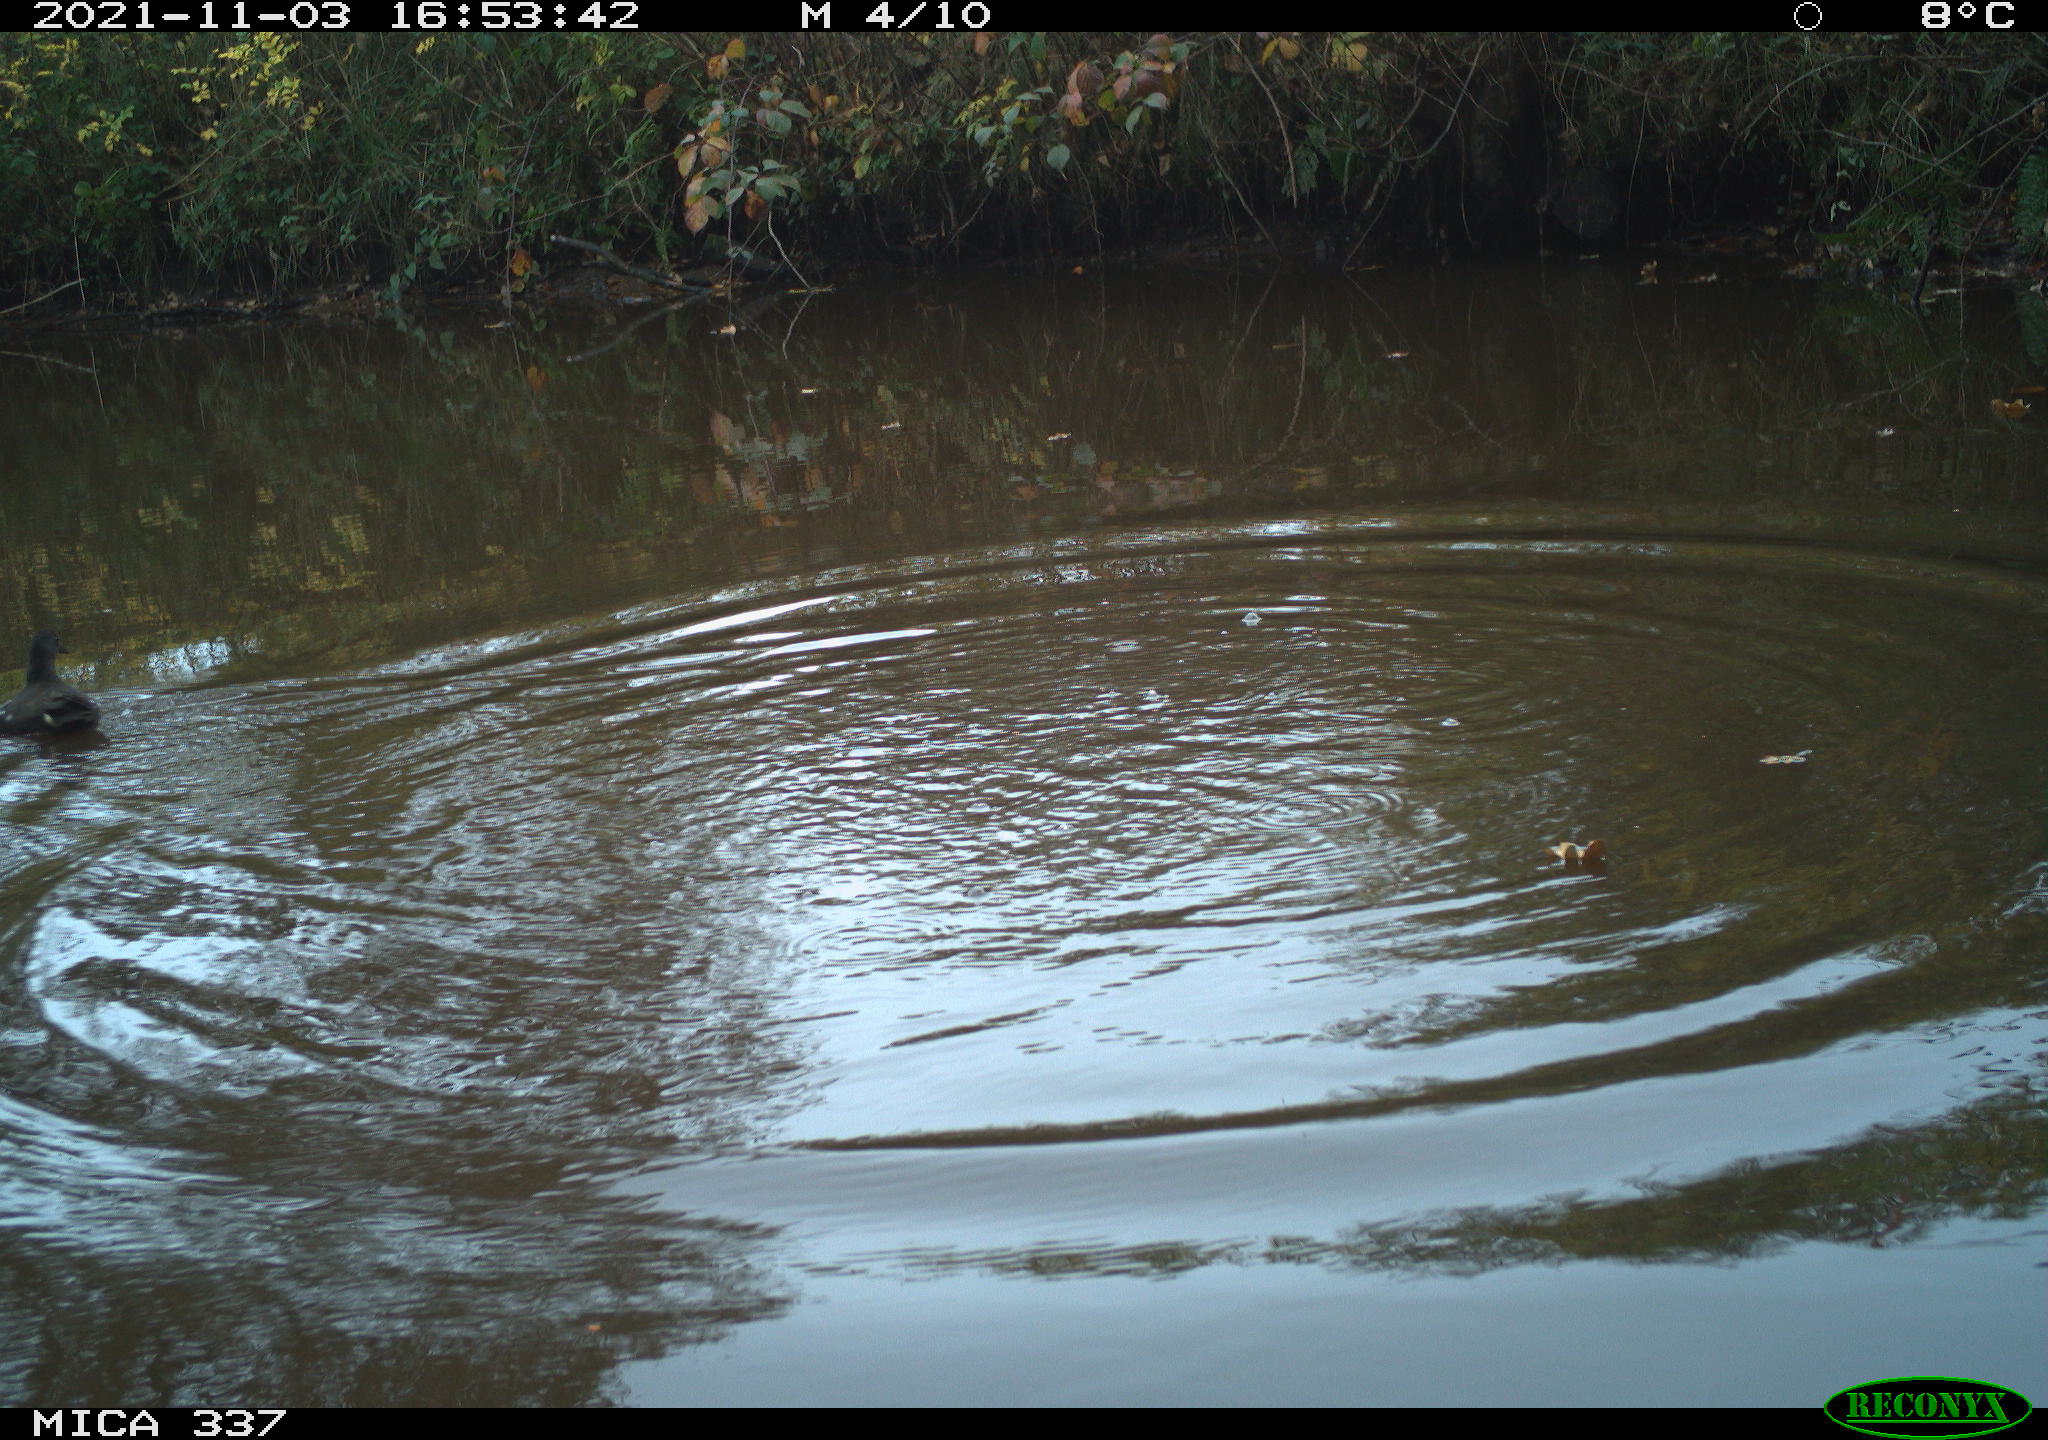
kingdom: Animalia
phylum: Chordata
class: Aves
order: Gruiformes
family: Rallidae
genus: Gallinula
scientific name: Gallinula chloropus
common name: Common moorhen
